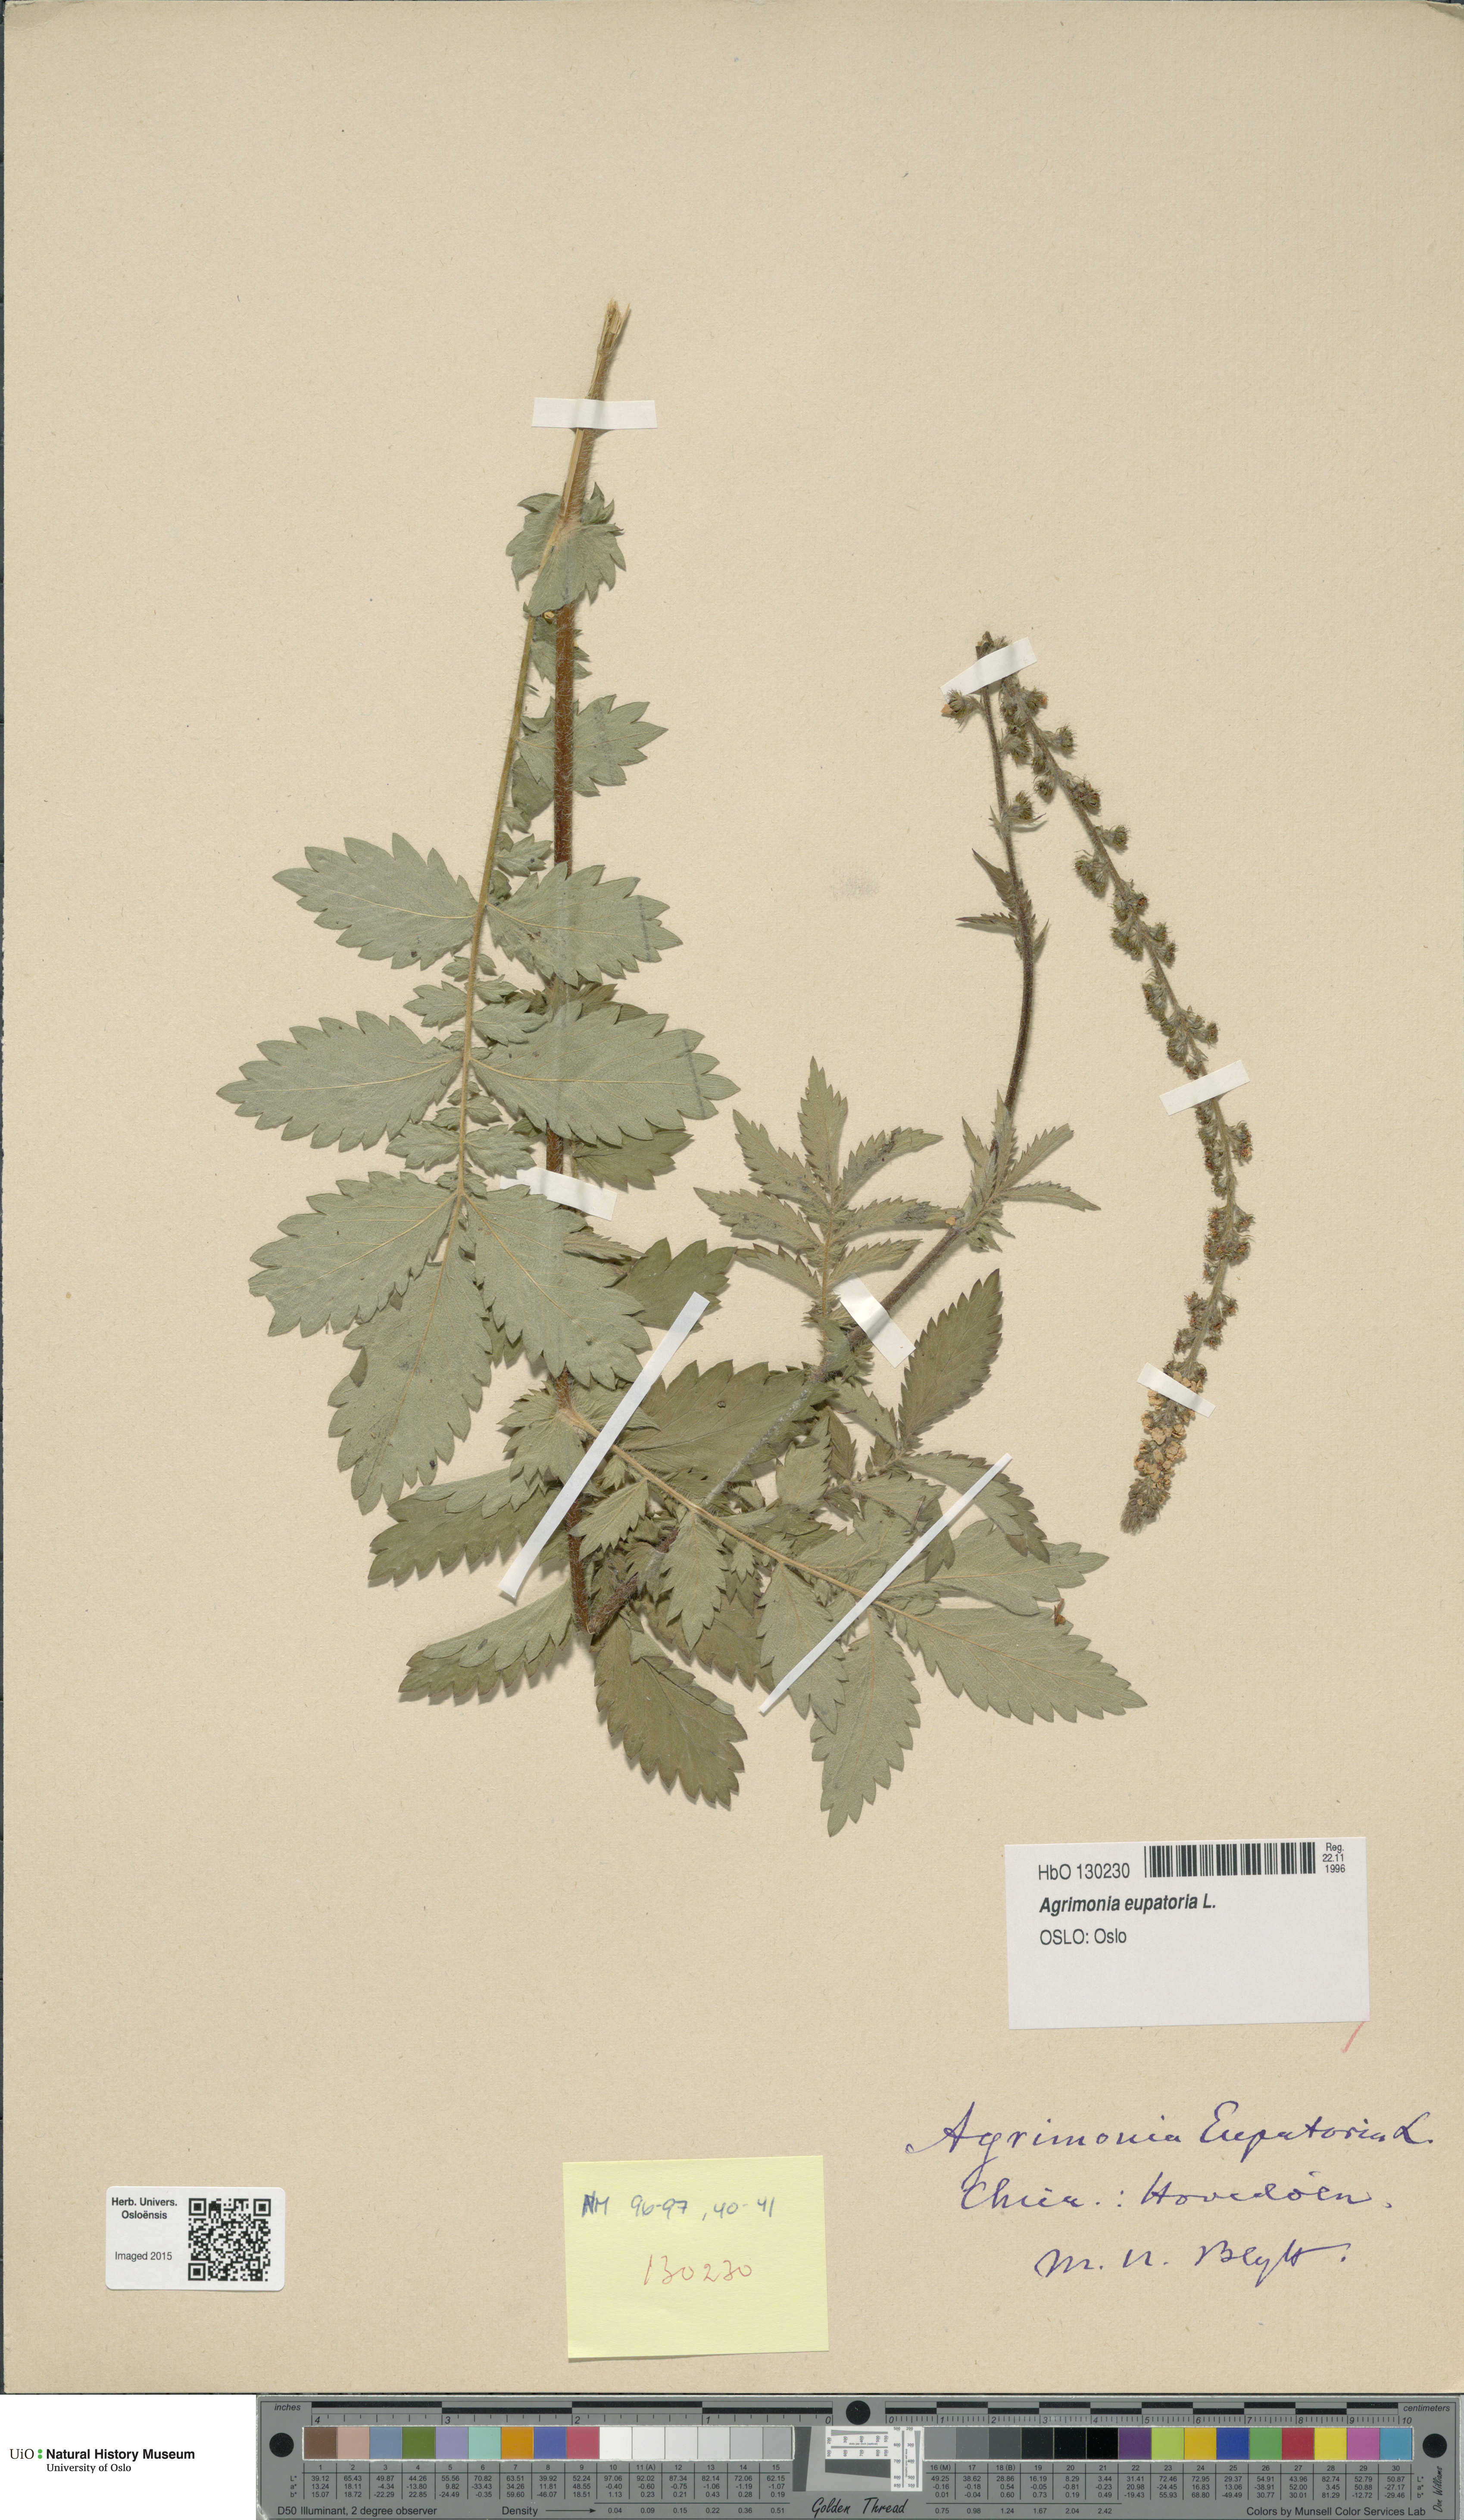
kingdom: Plantae
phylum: Tracheophyta
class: Magnoliopsida
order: Rosales
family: Rosaceae
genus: Agrimonia
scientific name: Agrimonia eupatoria
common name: Agrimony
